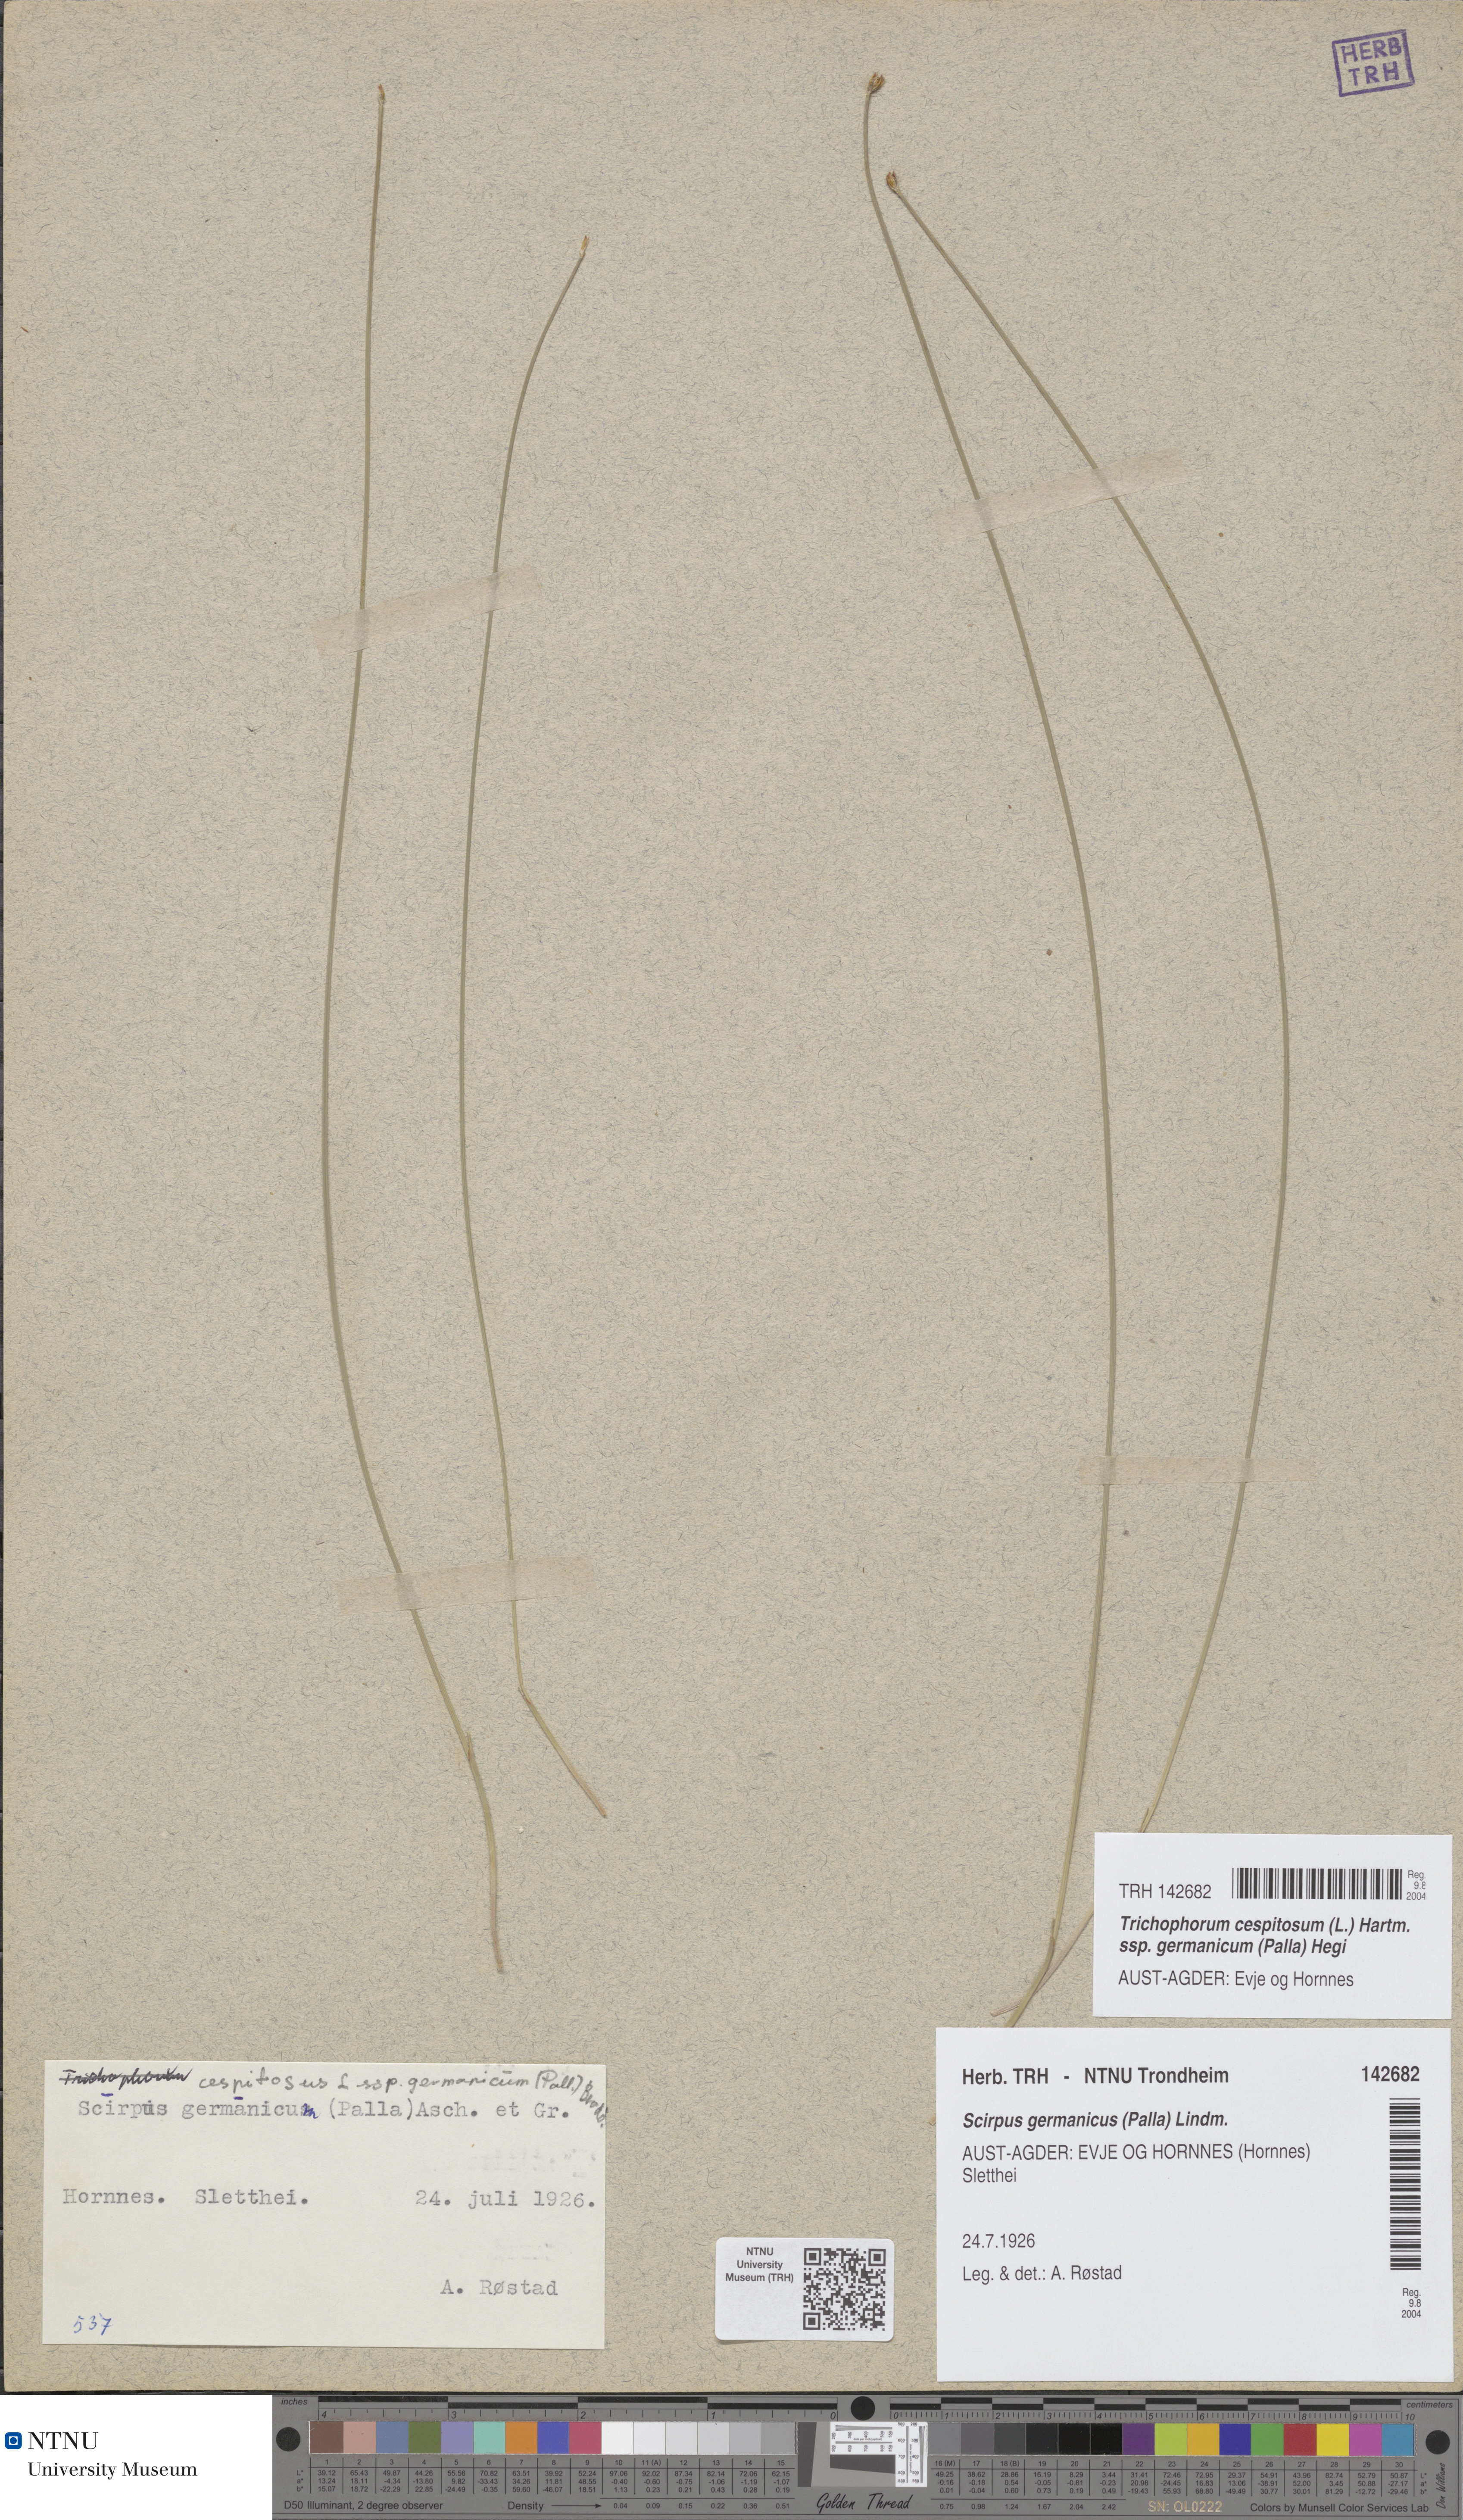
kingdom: Plantae
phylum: Tracheophyta
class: Liliopsida
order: Poales
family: Cyperaceae
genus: Trichophorum
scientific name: Trichophorum cespitosum
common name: Cespitose bulrush
